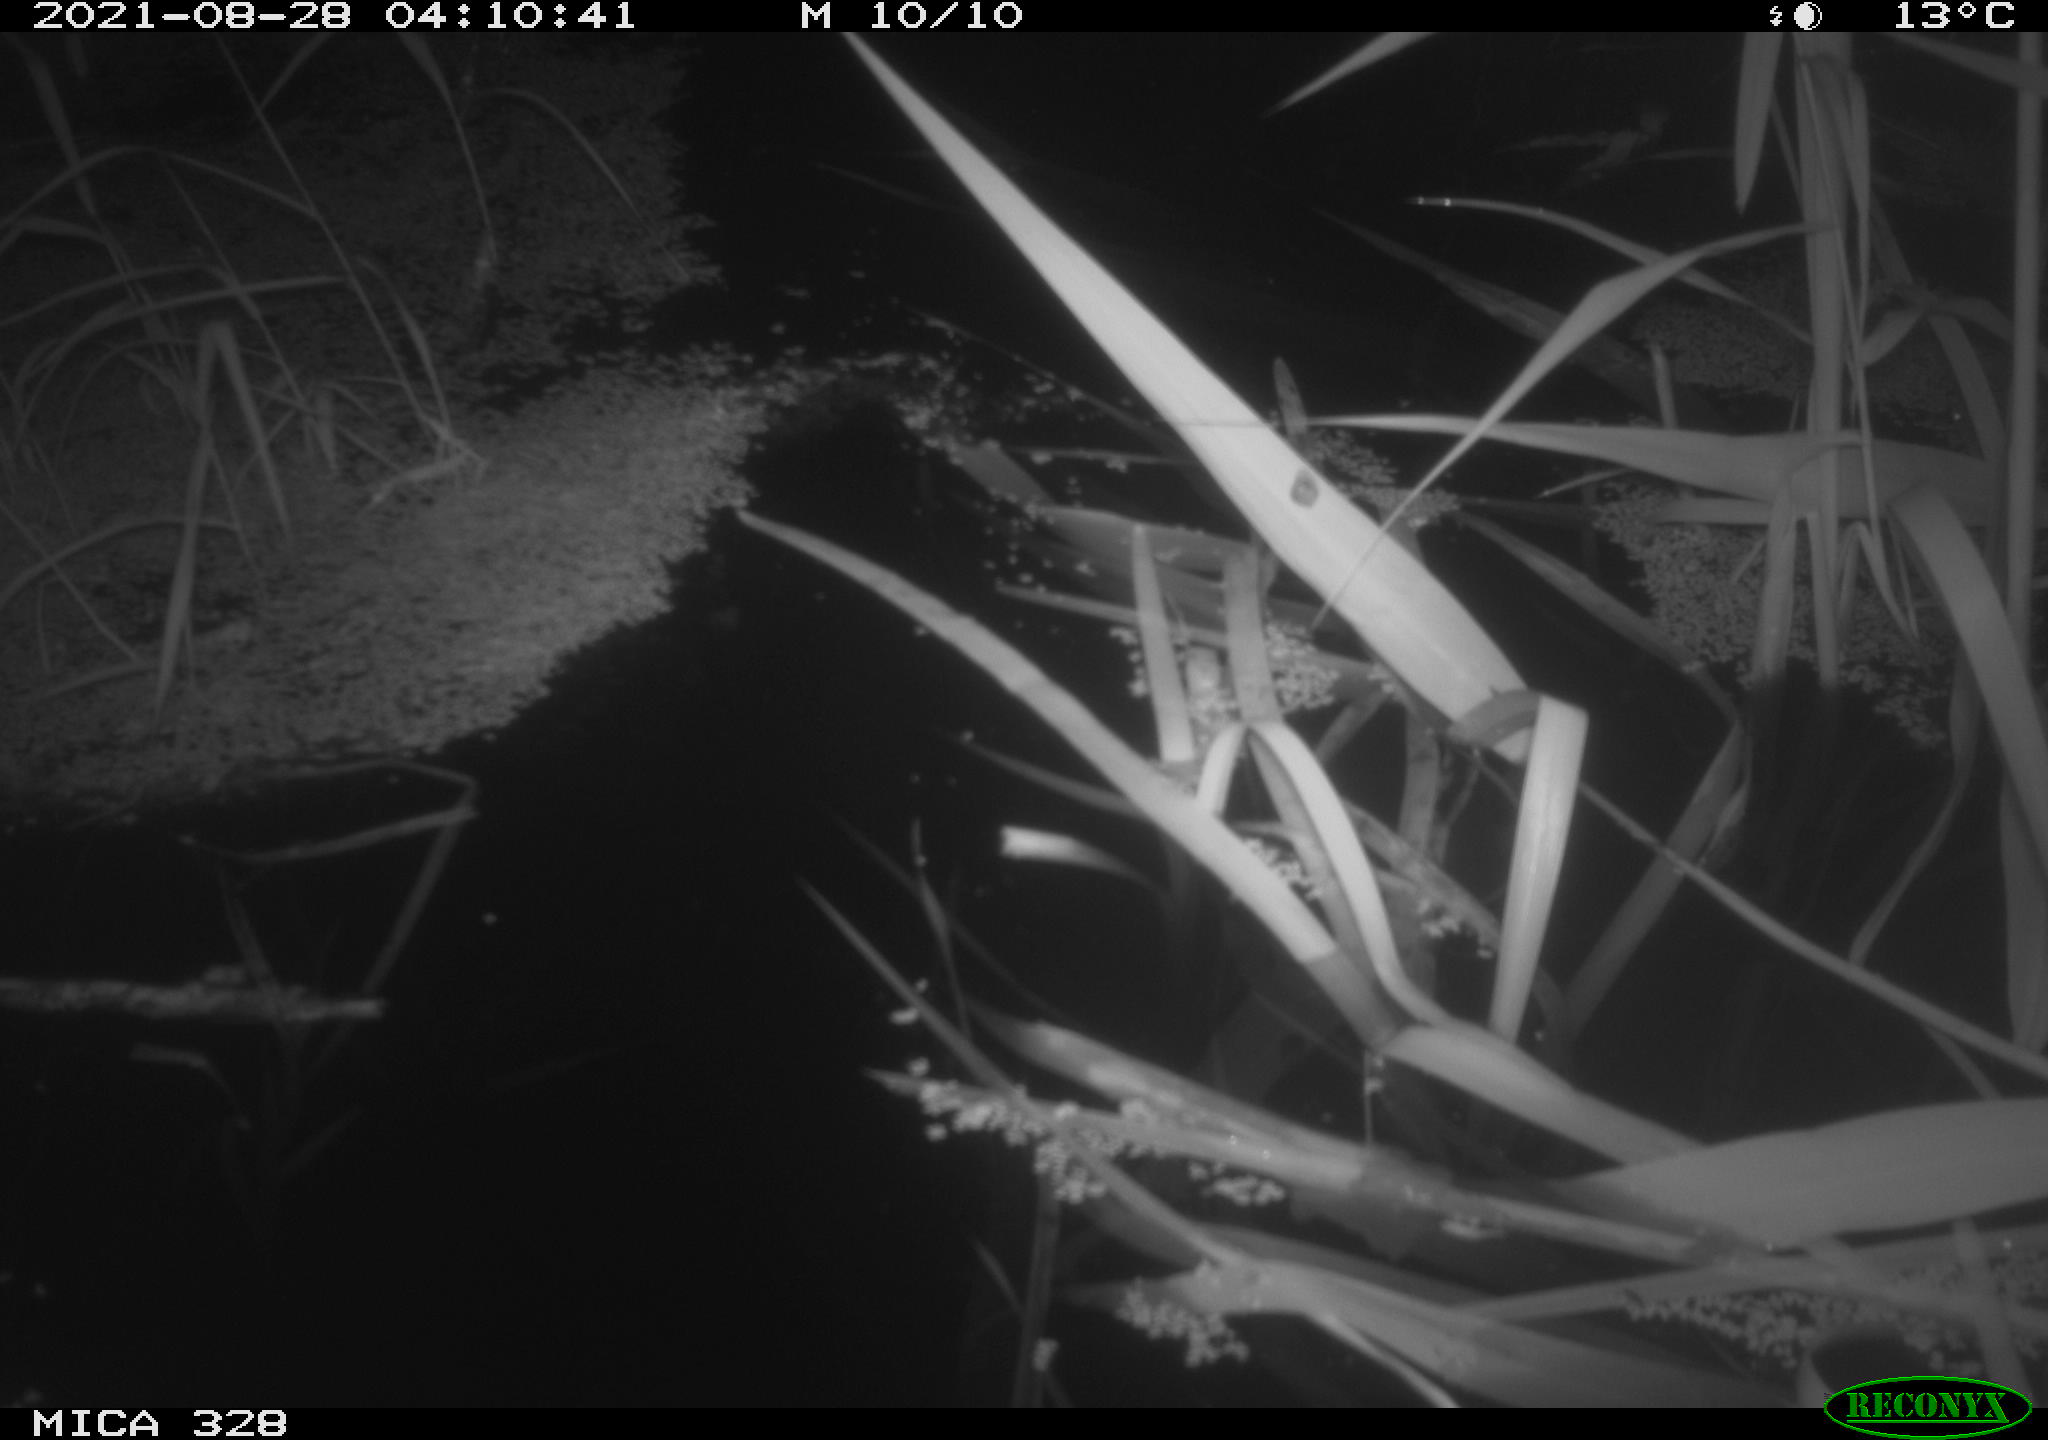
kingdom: Animalia
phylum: Chordata
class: Mammalia
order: Rodentia
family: Cricetidae
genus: Ondatra
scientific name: Ondatra zibethicus
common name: Muskrat
